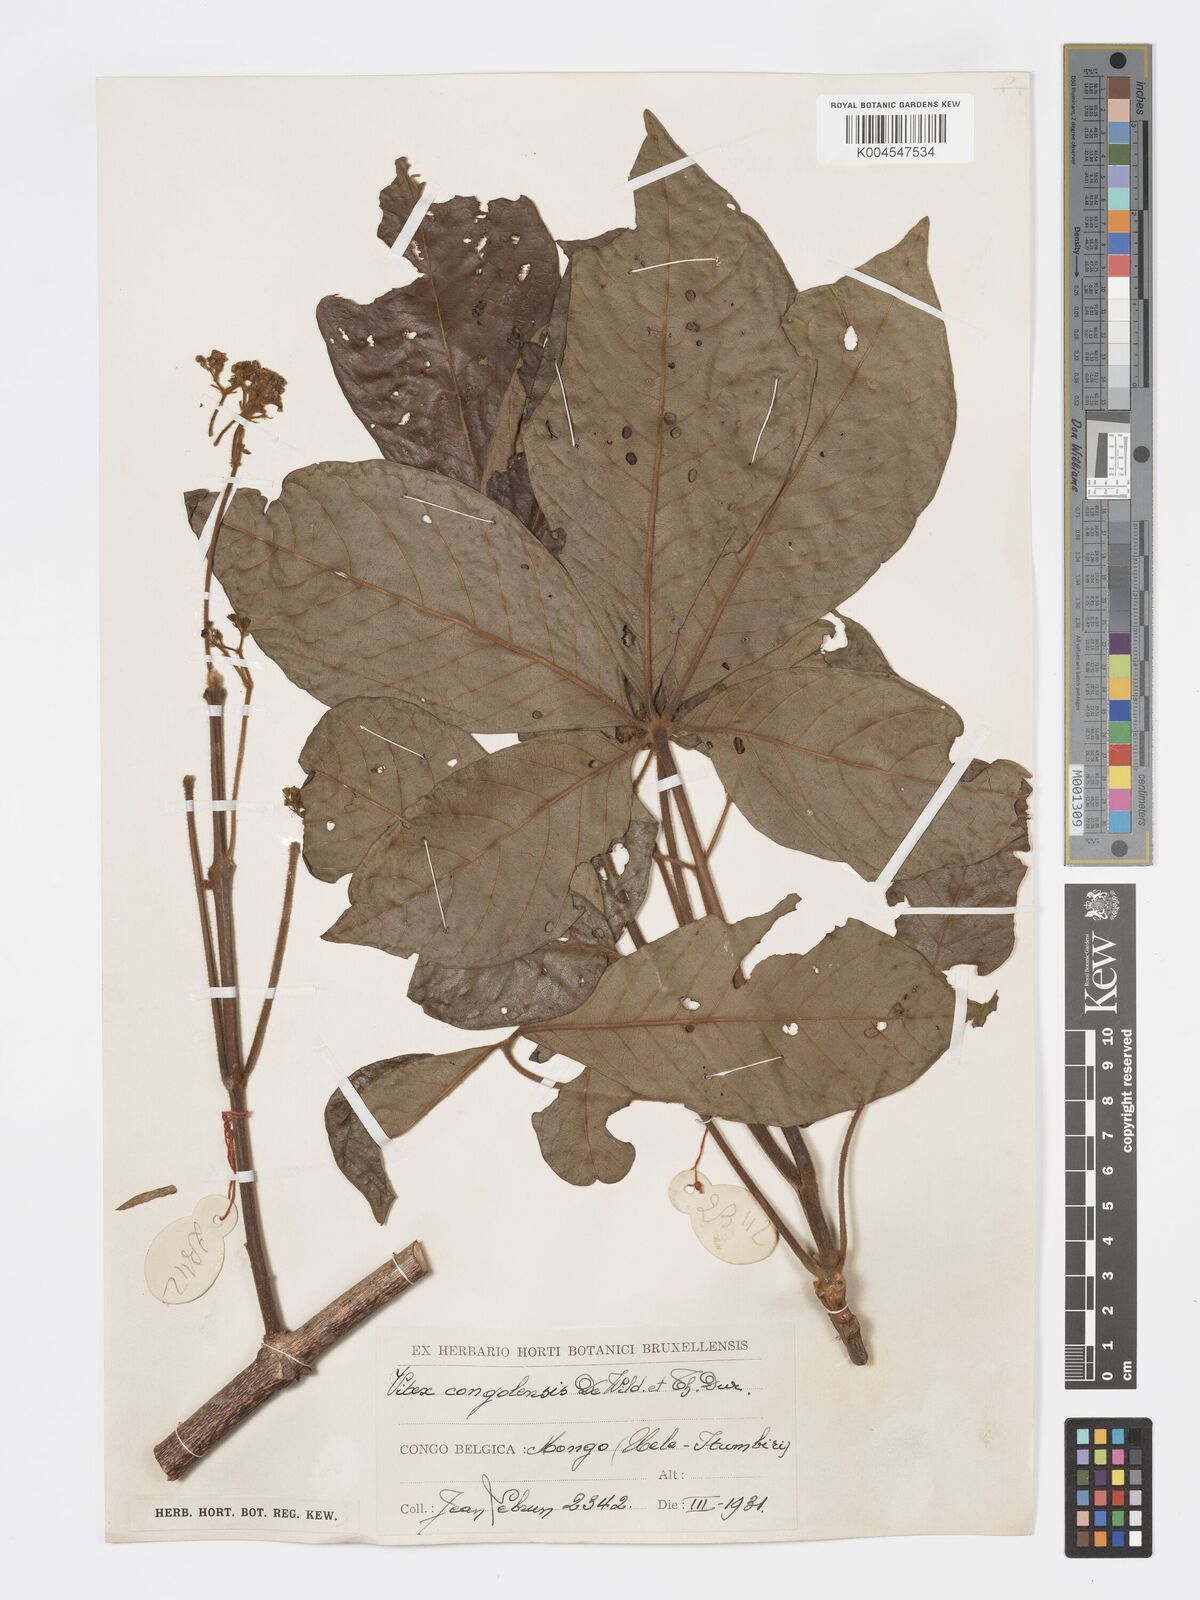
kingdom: Plantae
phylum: Tracheophyta
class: Magnoliopsida
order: Lamiales
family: Lamiaceae
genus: Vitex
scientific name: Vitex congolensis
